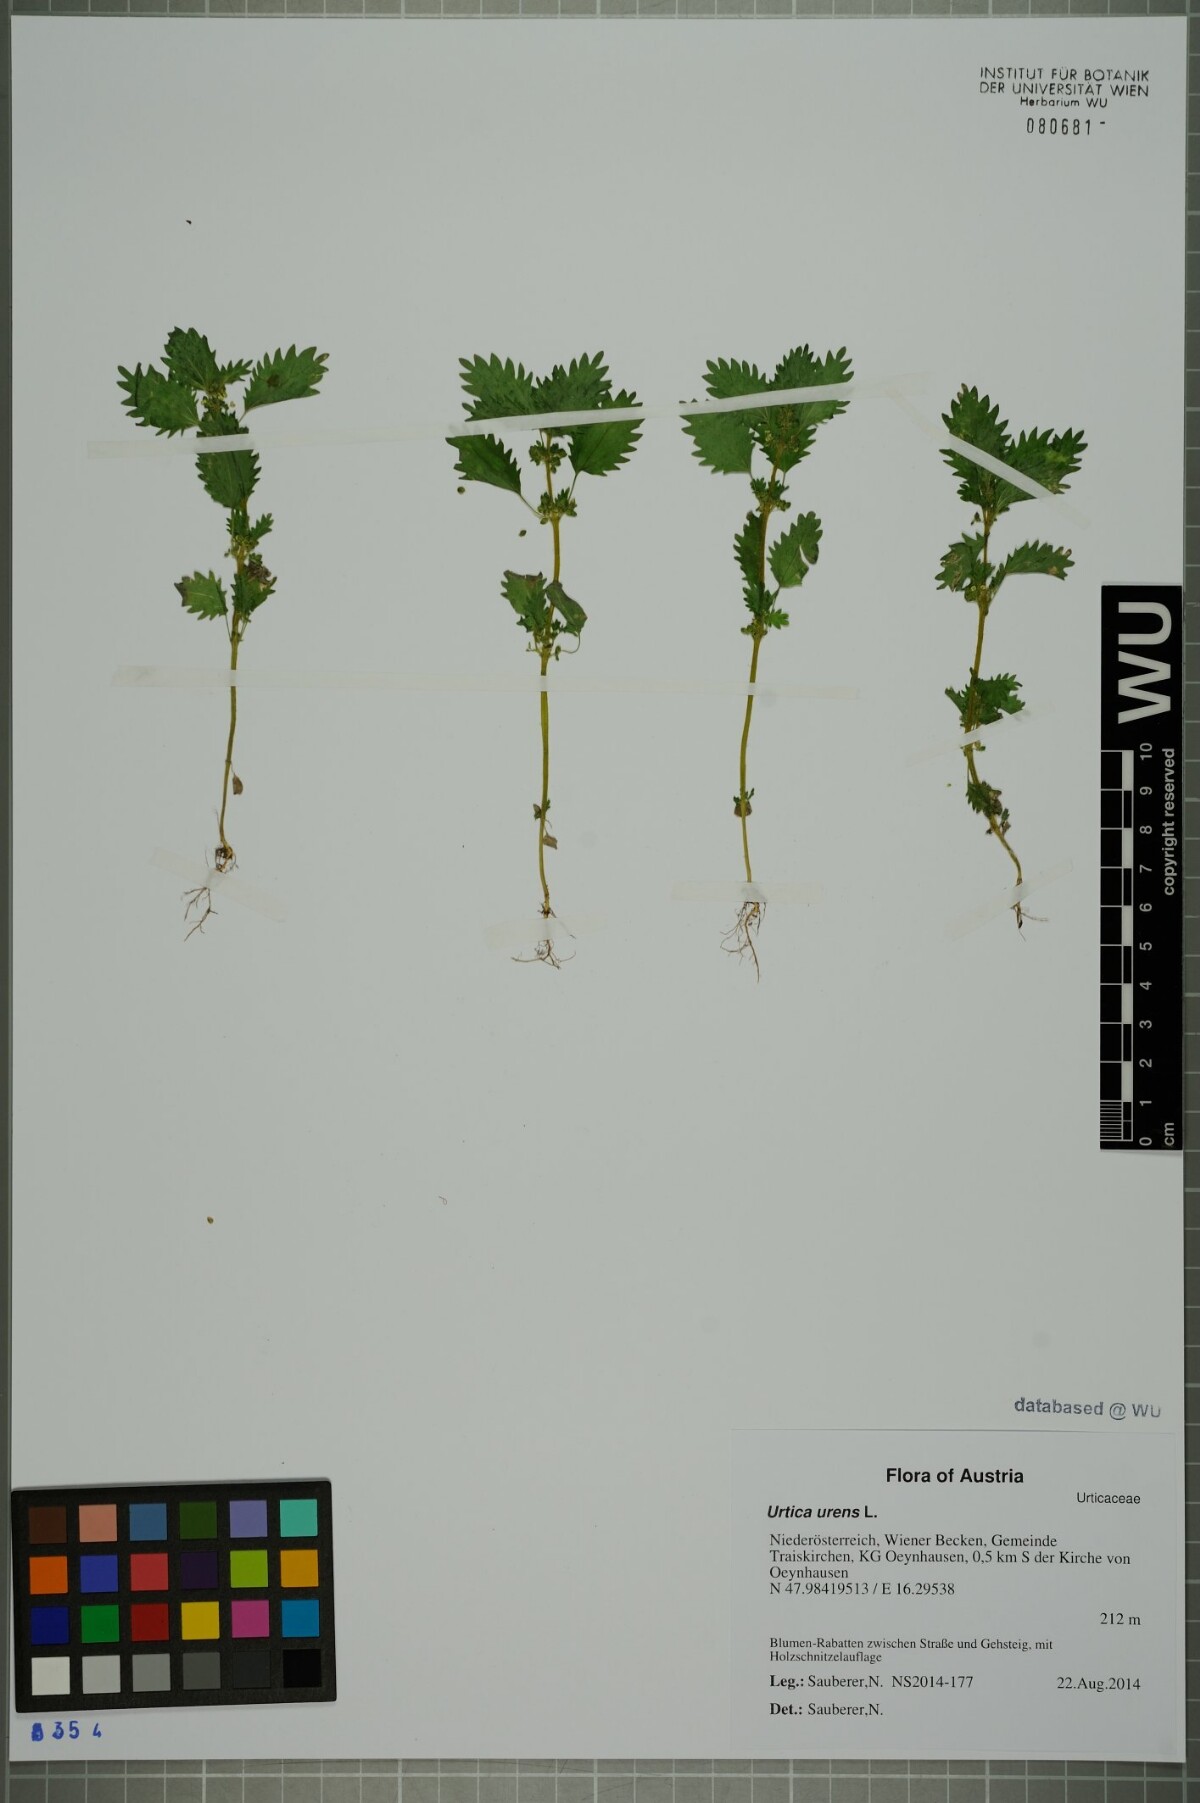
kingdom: Plantae
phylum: Tracheophyta
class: Magnoliopsida
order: Rosales
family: Urticaceae
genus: Urtica
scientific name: Urtica urens
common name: Dwarf nettle
